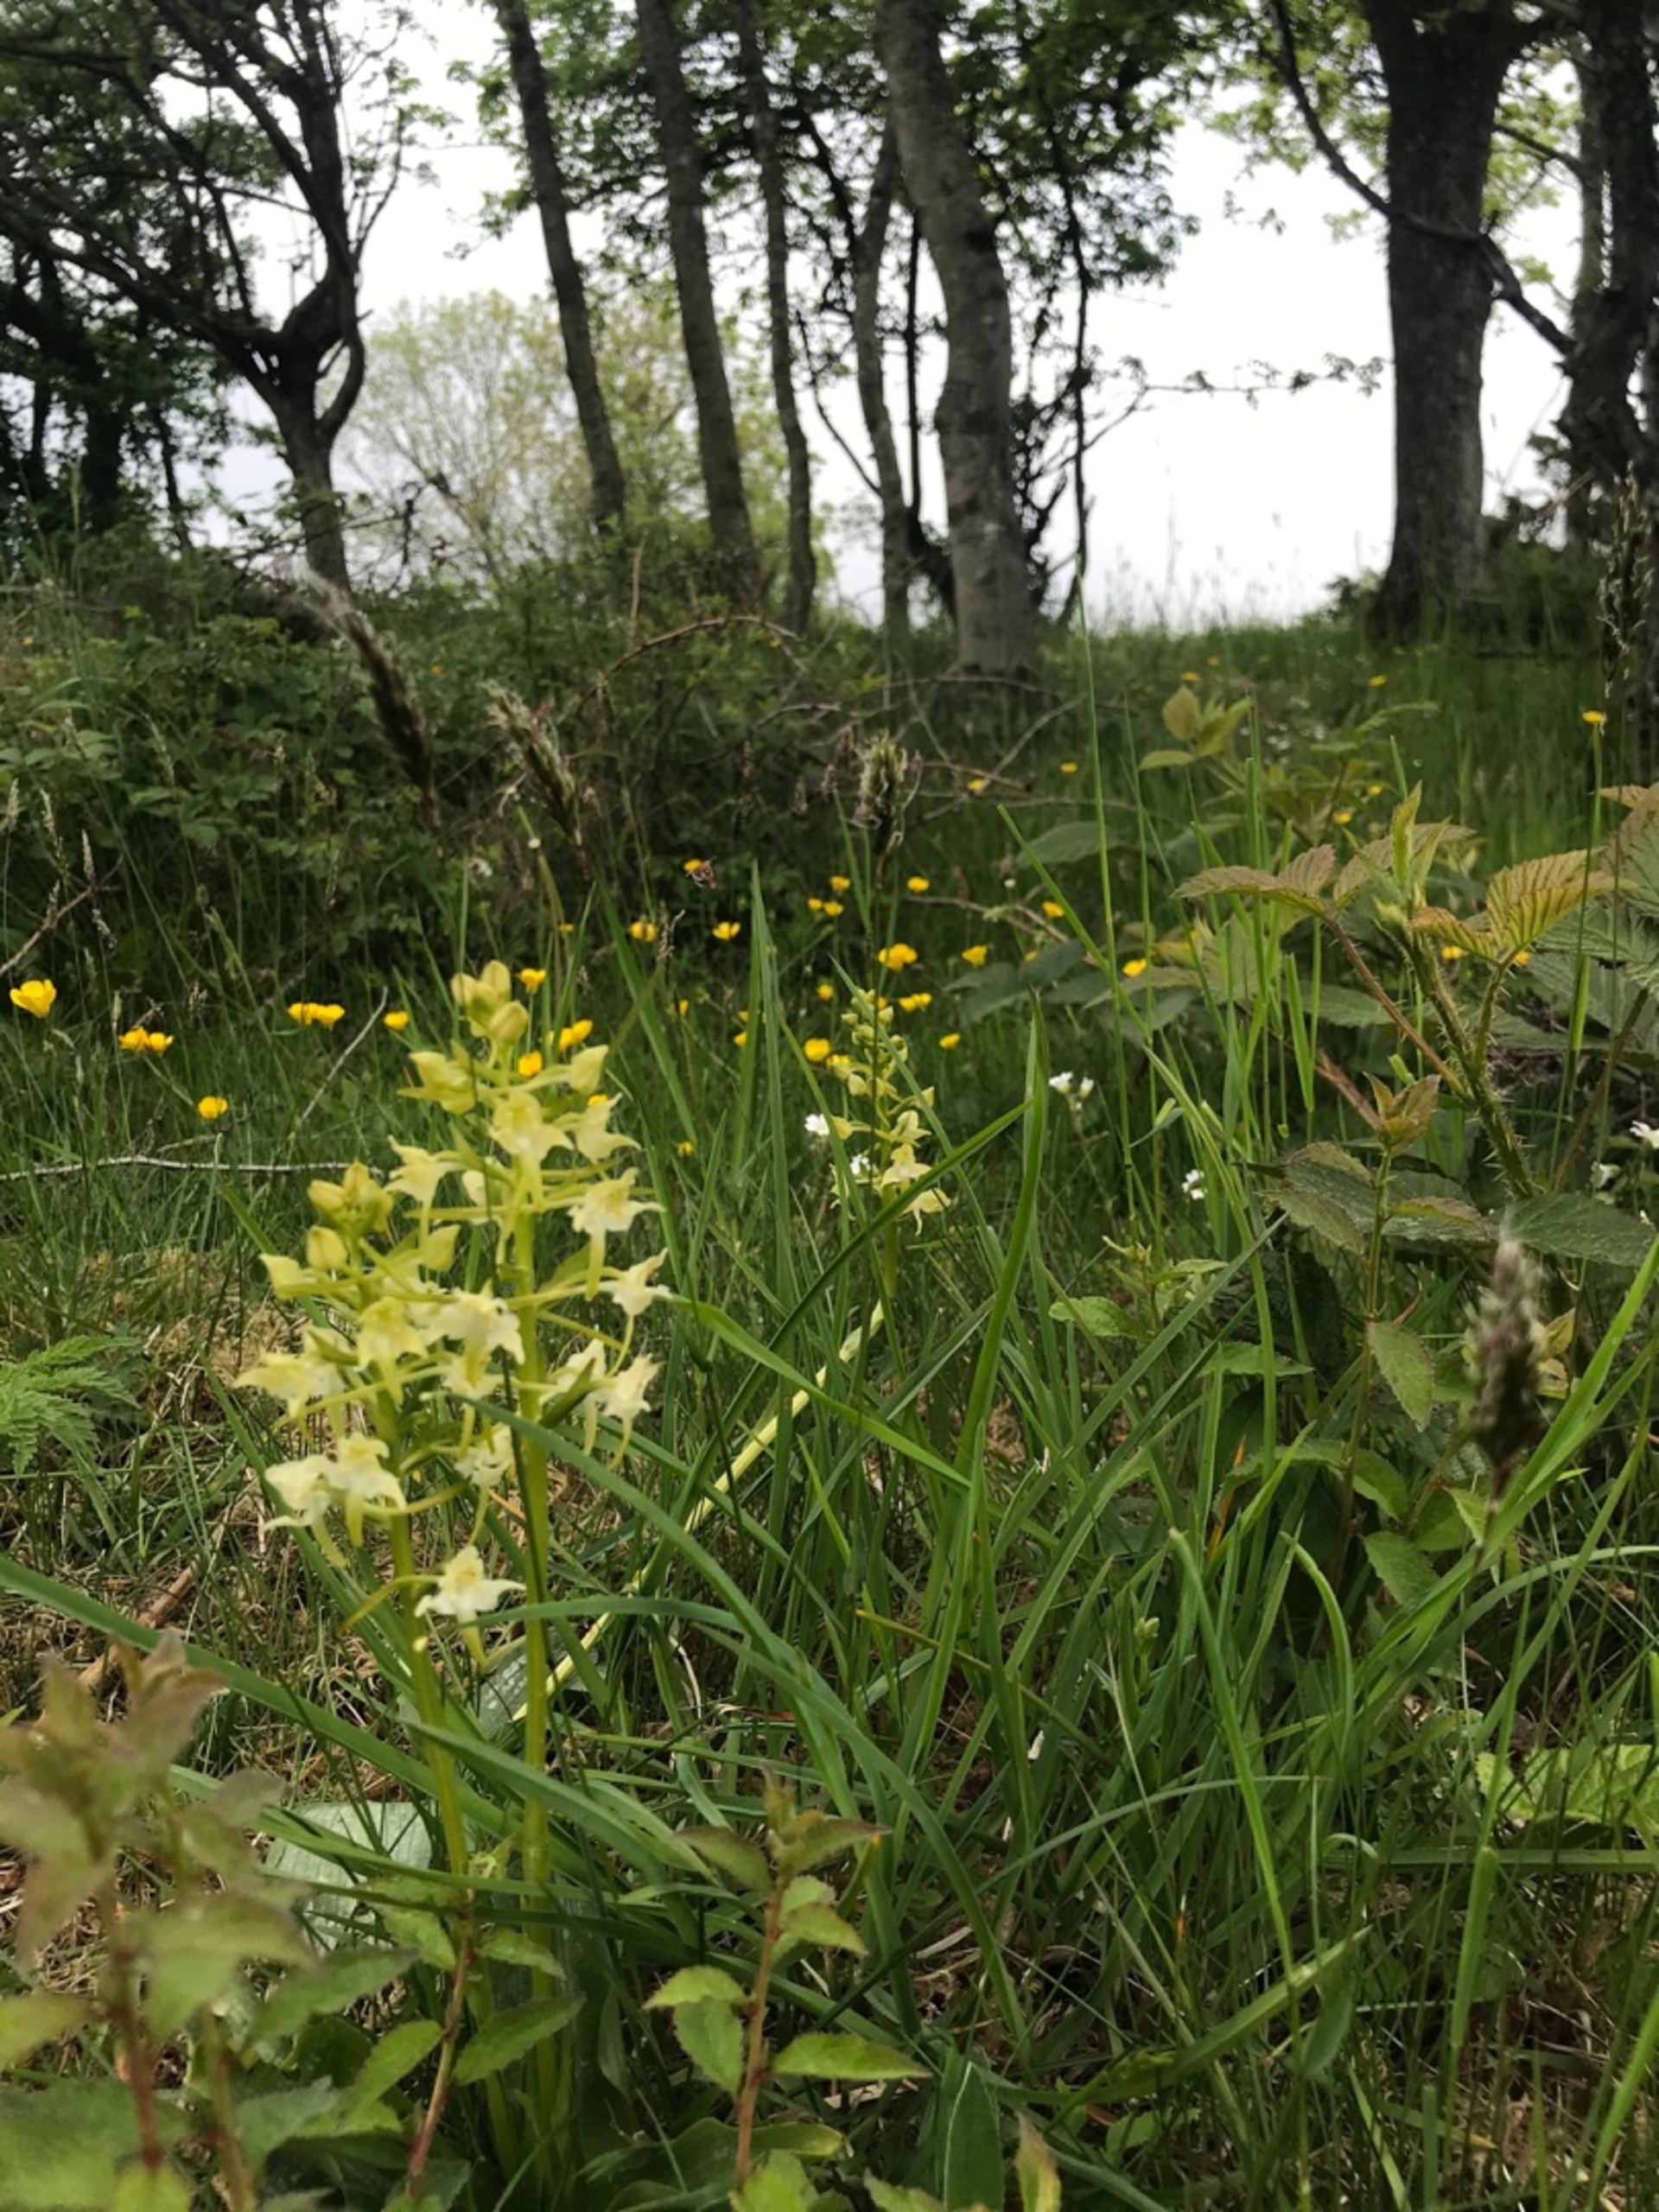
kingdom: Plantae
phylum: Tracheophyta
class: Liliopsida
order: Asparagales
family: Orchidaceae
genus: Platanthera
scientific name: Platanthera chlorantha
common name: Skov-gøgelilje
